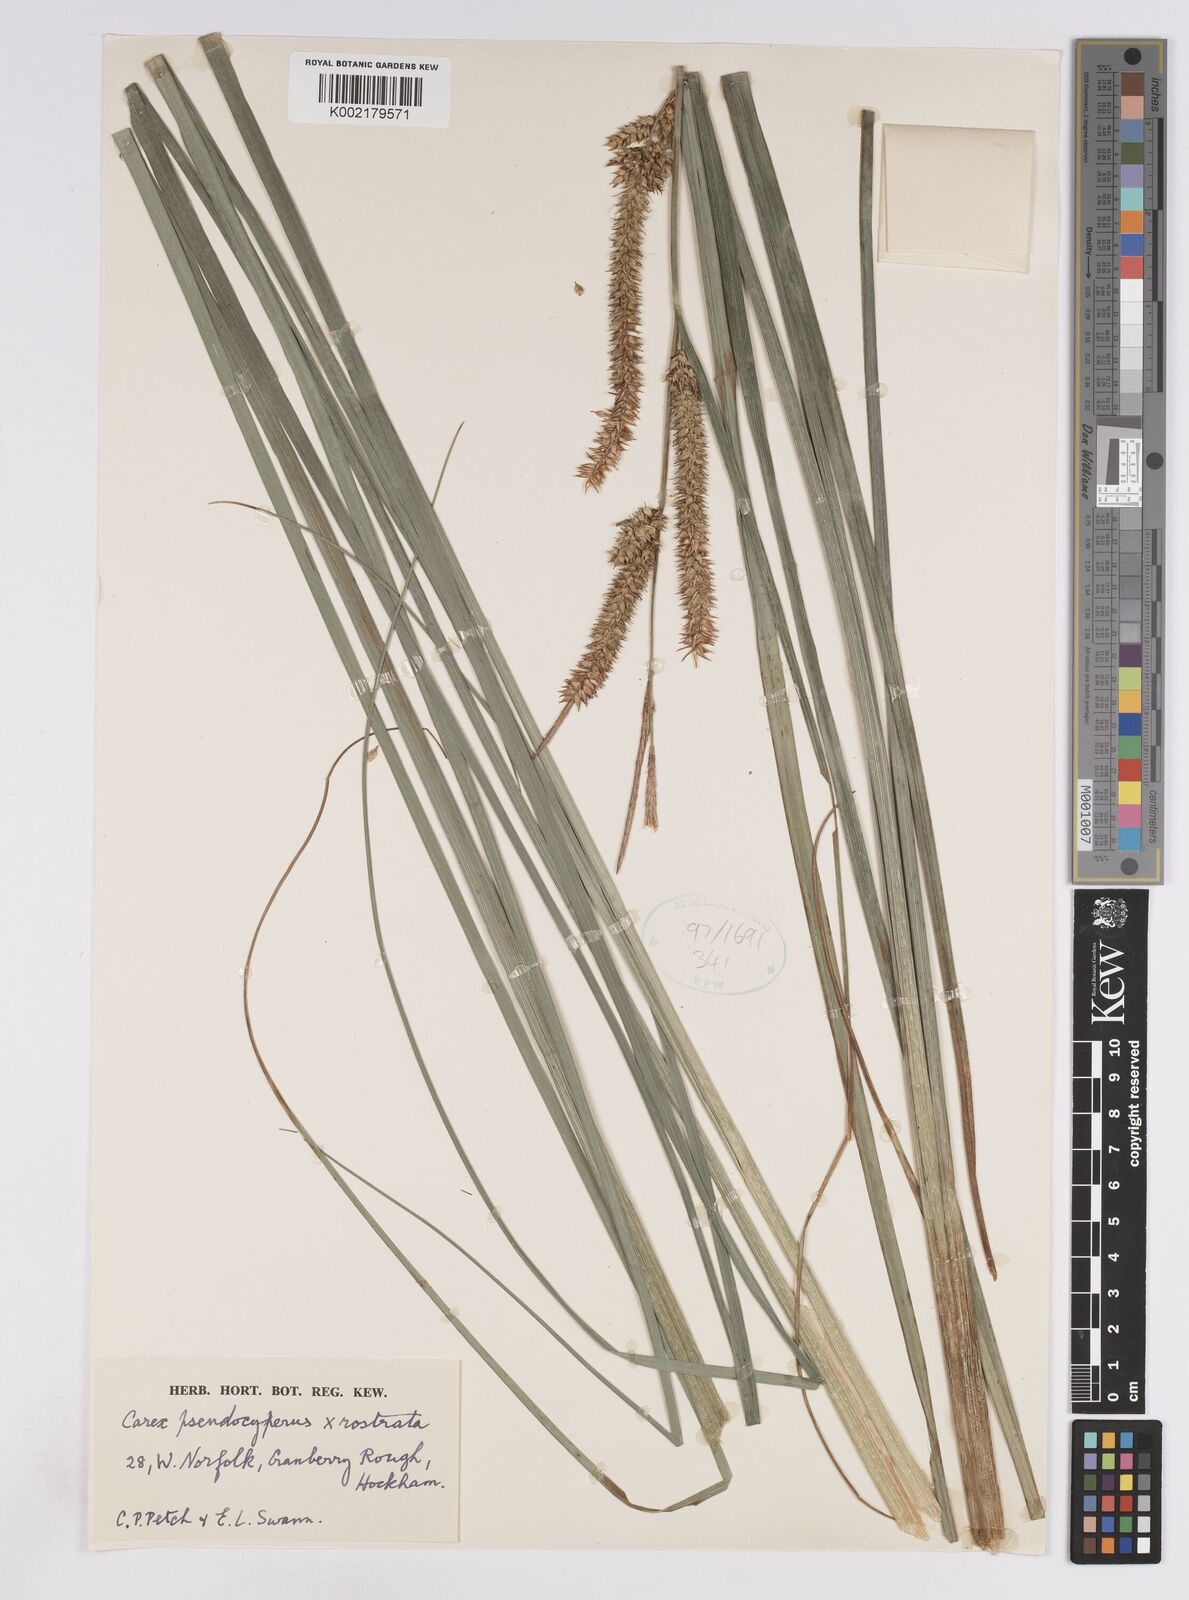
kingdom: Plantae
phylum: Tracheophyta
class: Liliopsida
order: Poales
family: Cyperaceae
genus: Carex
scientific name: Carex pseudocyperus
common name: Cyperus sedge
